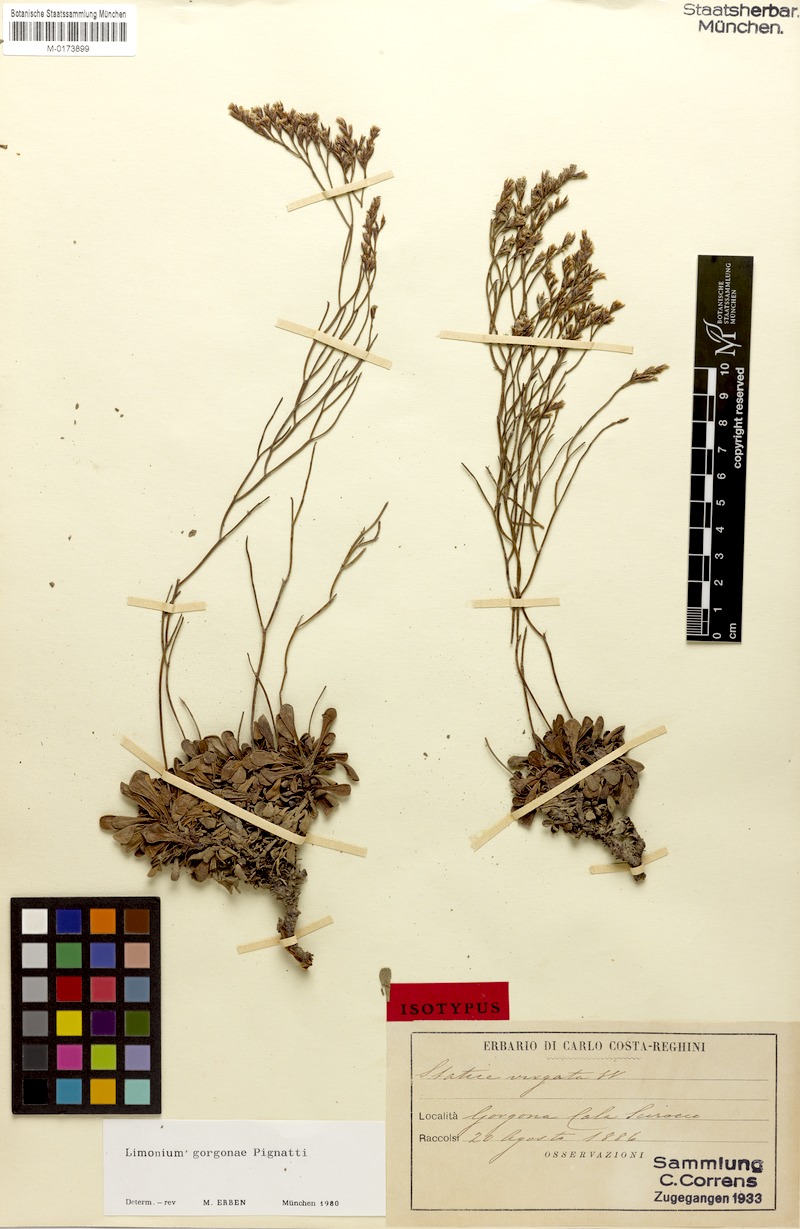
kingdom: Plantae
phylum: Tracheophyta
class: Magnoliopsida
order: Caryophyllales
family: Plumbaginaceae
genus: Limonium
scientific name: Limonium gorgonae
